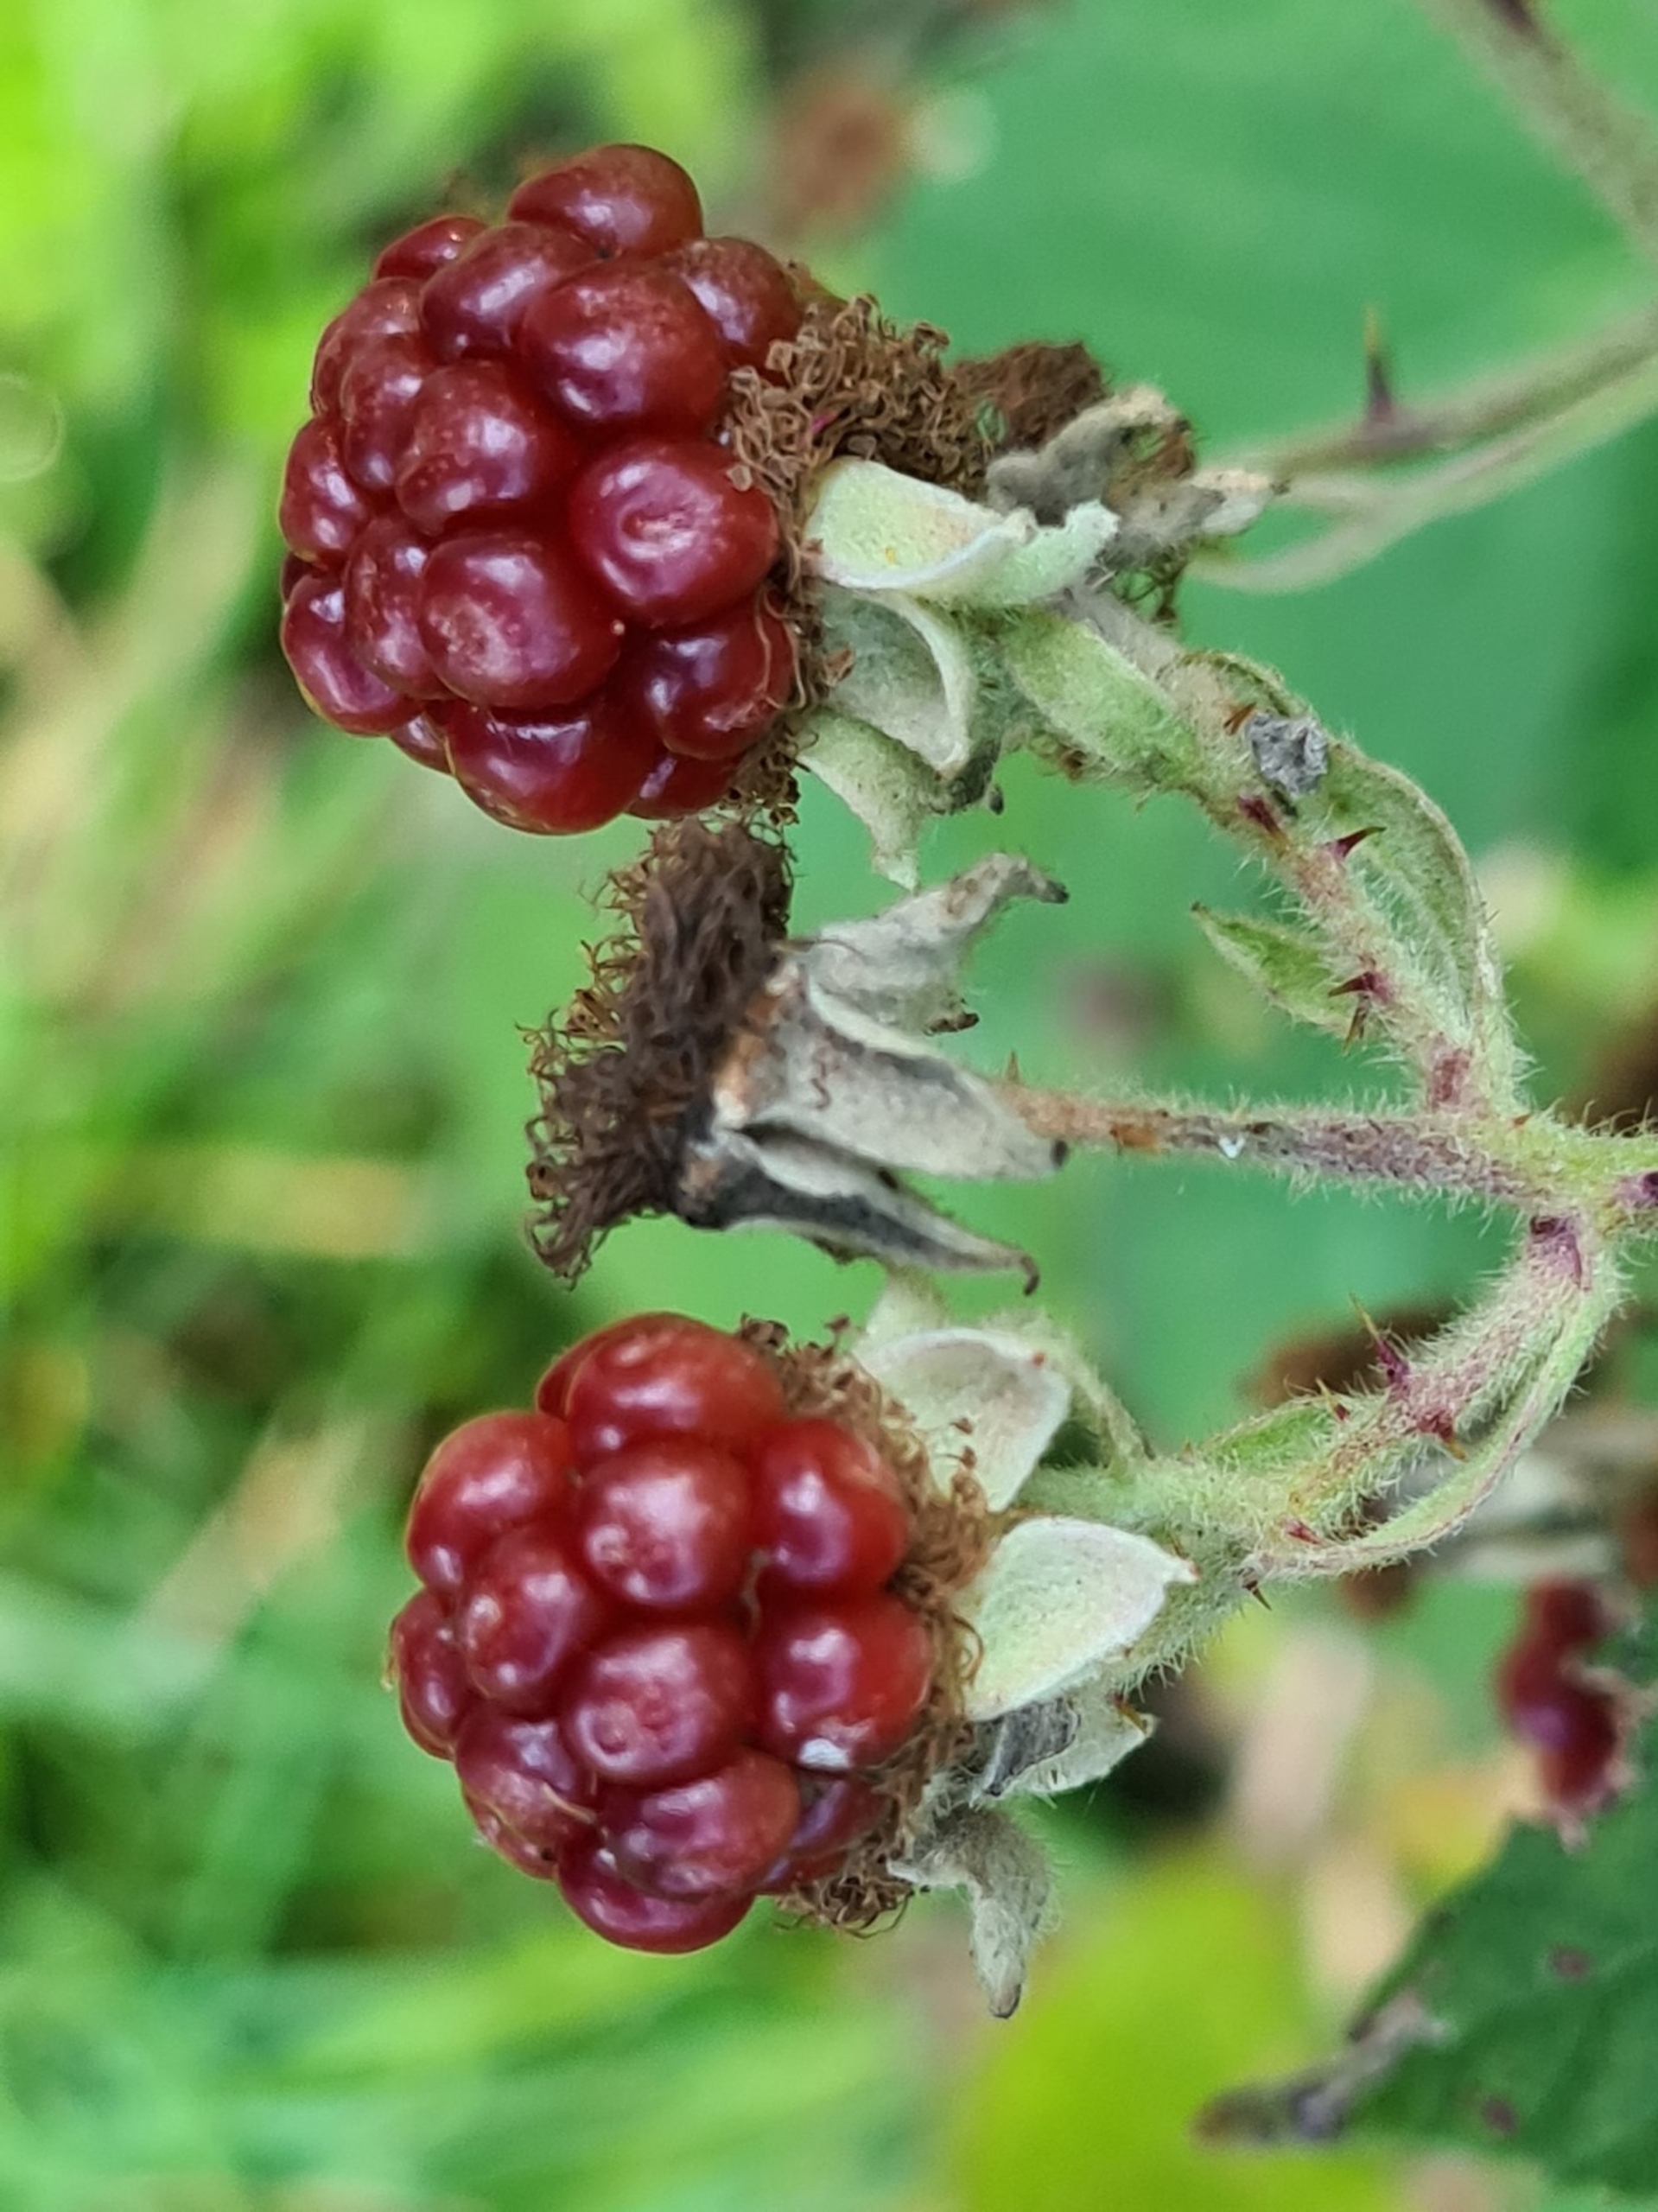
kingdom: Plantae
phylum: Tracheophyta
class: Magnoliopsida
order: Rosales
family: Rosaceae
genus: Rubus
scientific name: Rubus armeniacus
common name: Armensk brombær
